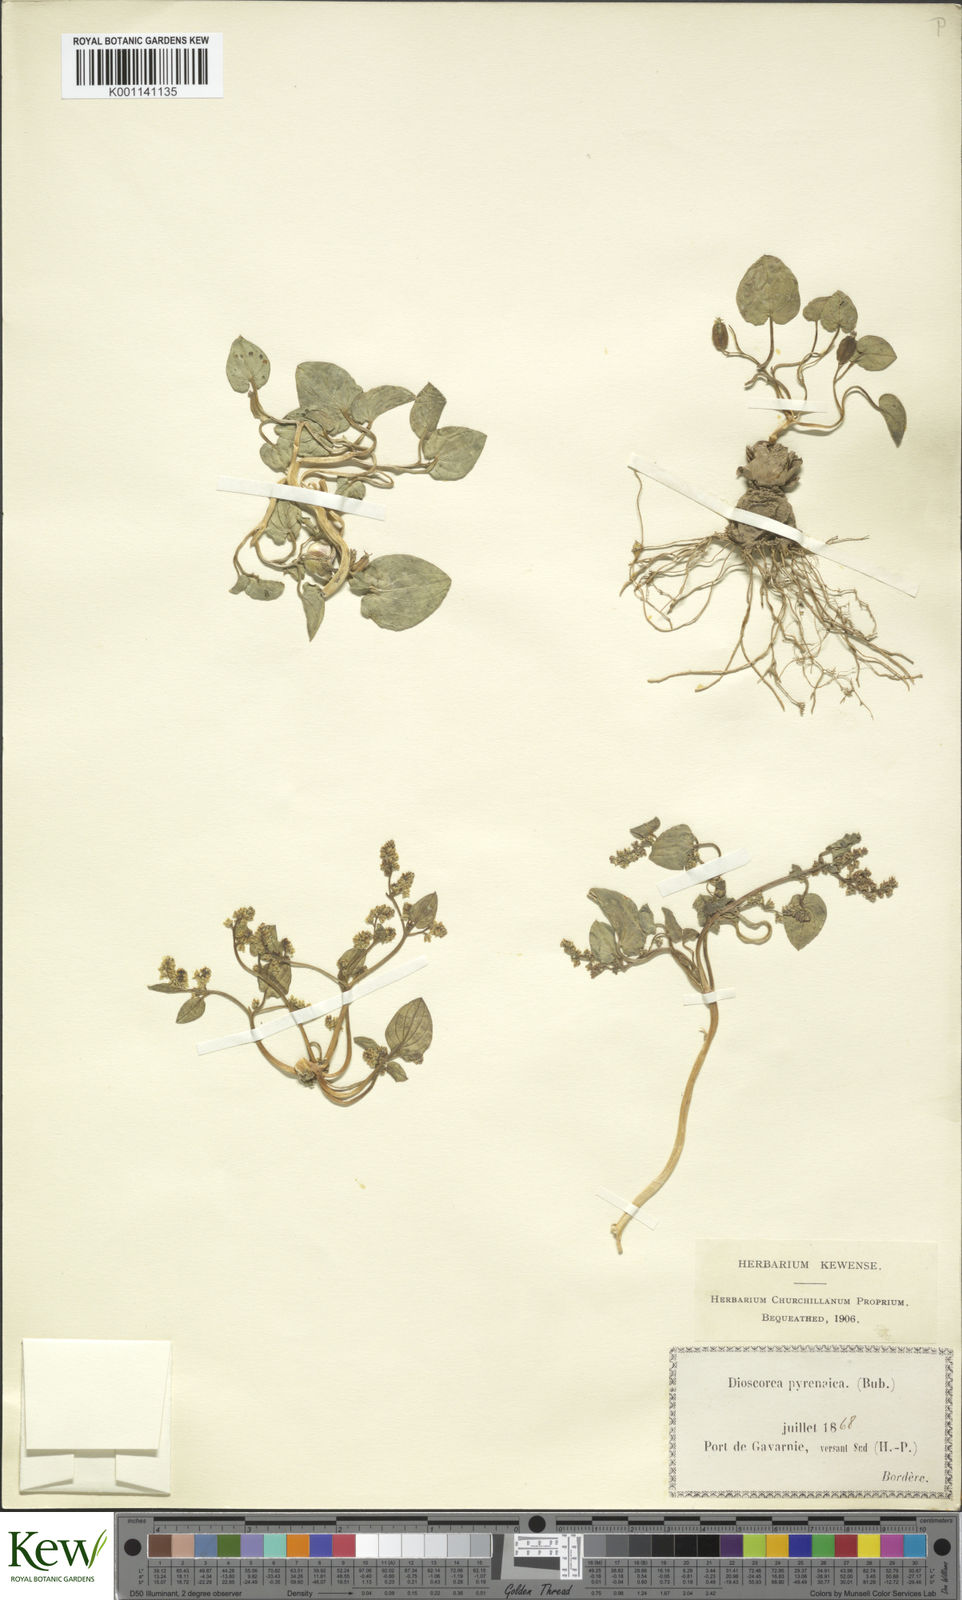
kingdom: Plantae
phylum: Tracheophyta
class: Liliopsida
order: Dioscoreales
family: Dioscoreaceae
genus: Dioscorea
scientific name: Dioscorea
